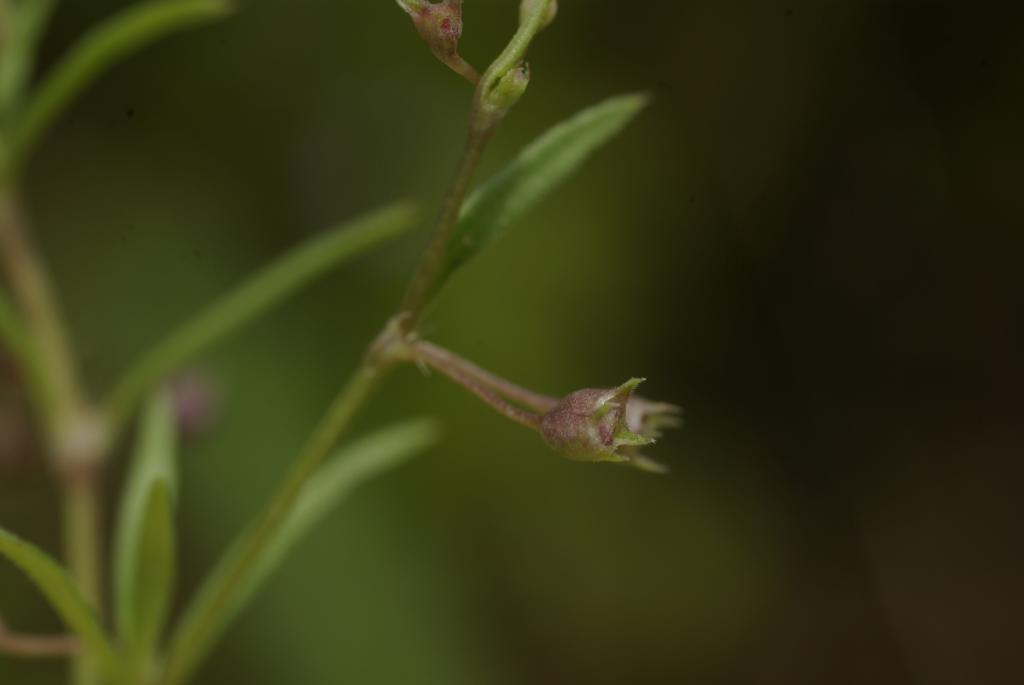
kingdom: Plantae
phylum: Tracheophyta
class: Magnoliopsida
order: Gentianales
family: Rubiaceae
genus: Oldenlandia
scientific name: Oldenlandia corymbosa
